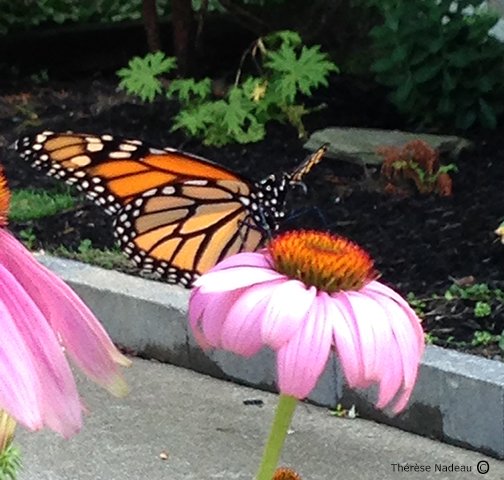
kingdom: Animalia
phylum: Arthropoda
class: Insecta
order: Lepidoptera
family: Nymphalidae
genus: Danaus
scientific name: Danaus plexippus
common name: Monarch
